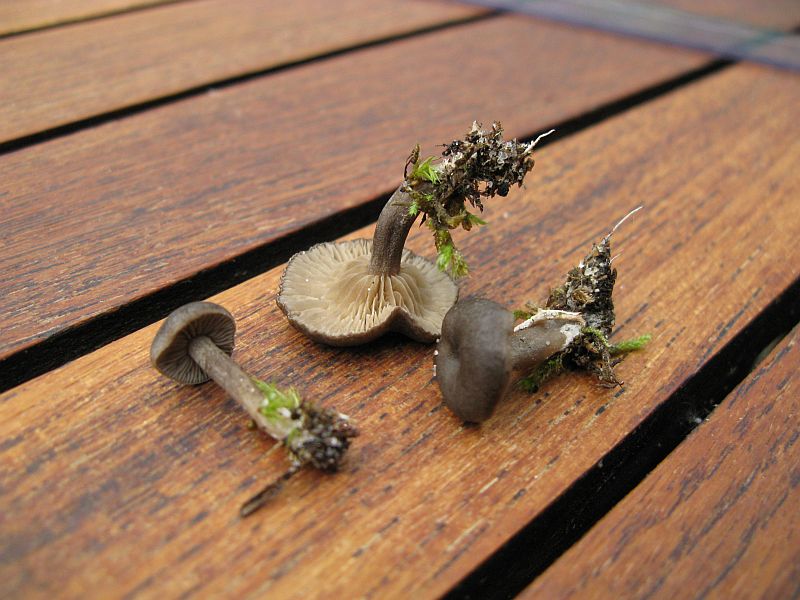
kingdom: Fungi
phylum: Basidiomycota
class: Agaricomycetes
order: Agaricales
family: Entolomataceae
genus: Clitopilus
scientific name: Clitopilus caelatus
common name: gråbrun troldhat
